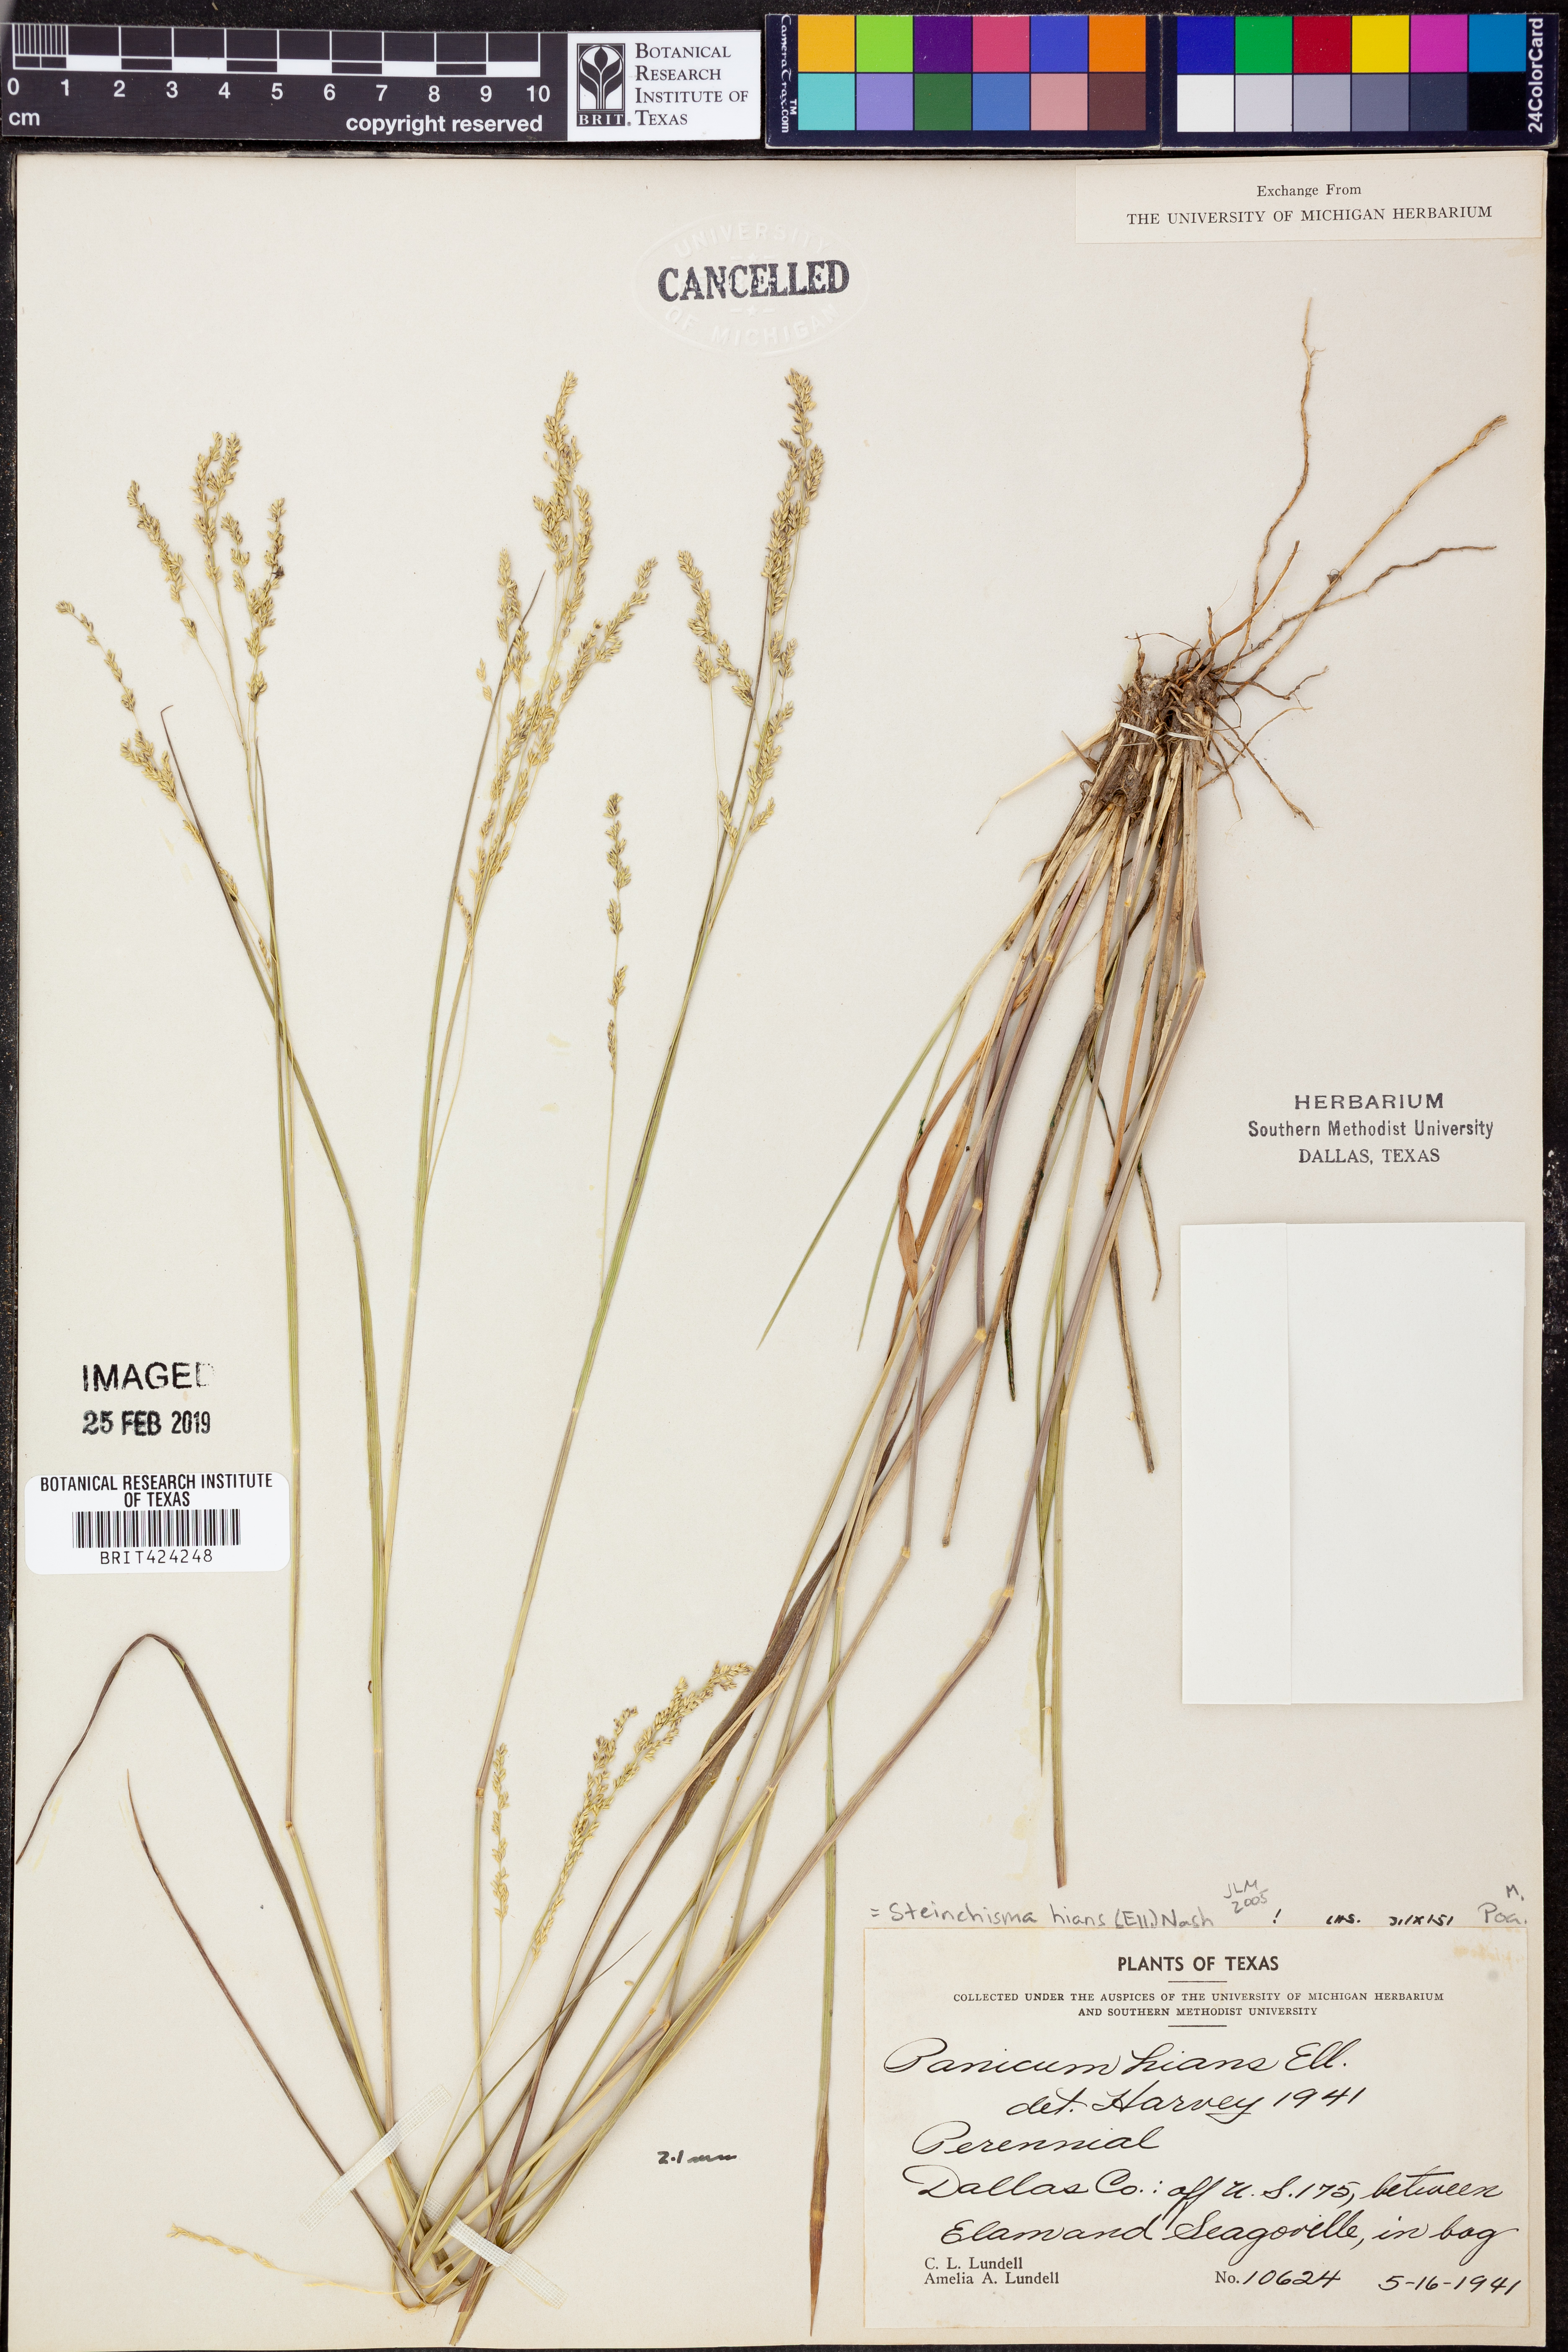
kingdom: Plantae
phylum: Tracheophyta
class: Liliopsida
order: Poales
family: Poaceae
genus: Steinchisma
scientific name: Steinchisma hians
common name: Gaping panic grass
